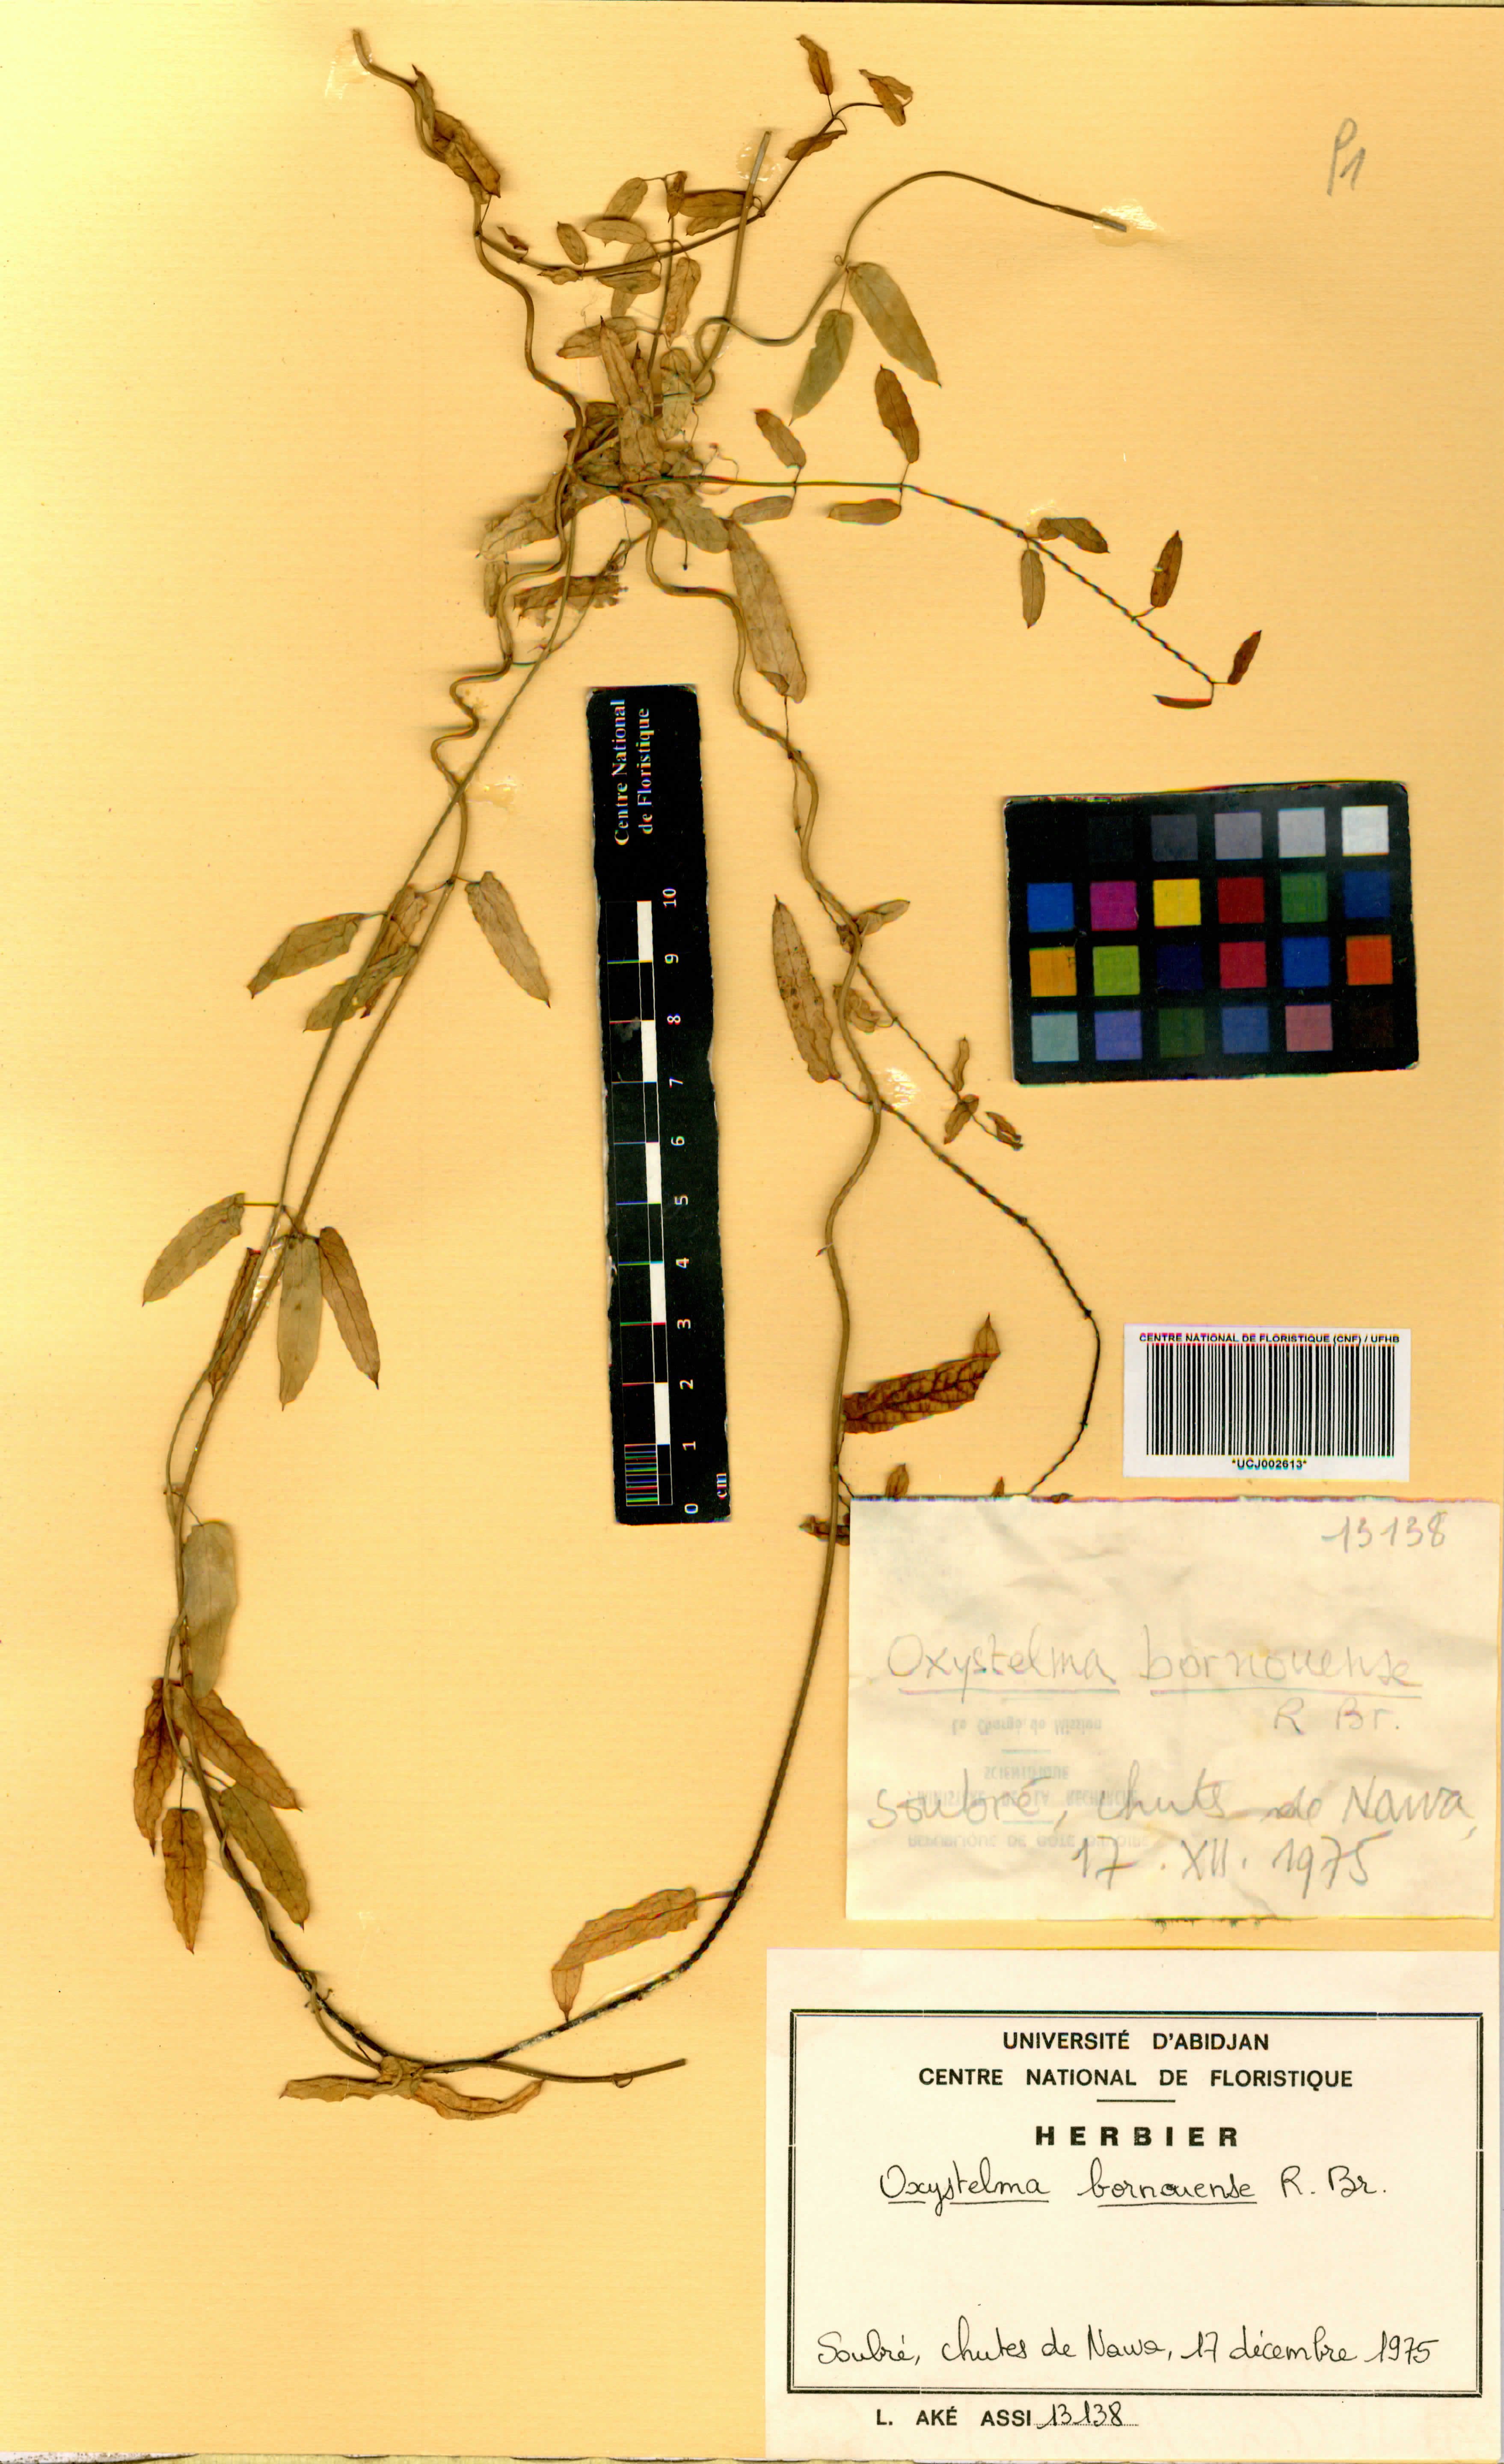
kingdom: Plantae
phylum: Tracheophyta
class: Magnoliopsida
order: Gentianales
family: Apocynaceae
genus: Oxystelma
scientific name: Oxystelma bornouense
